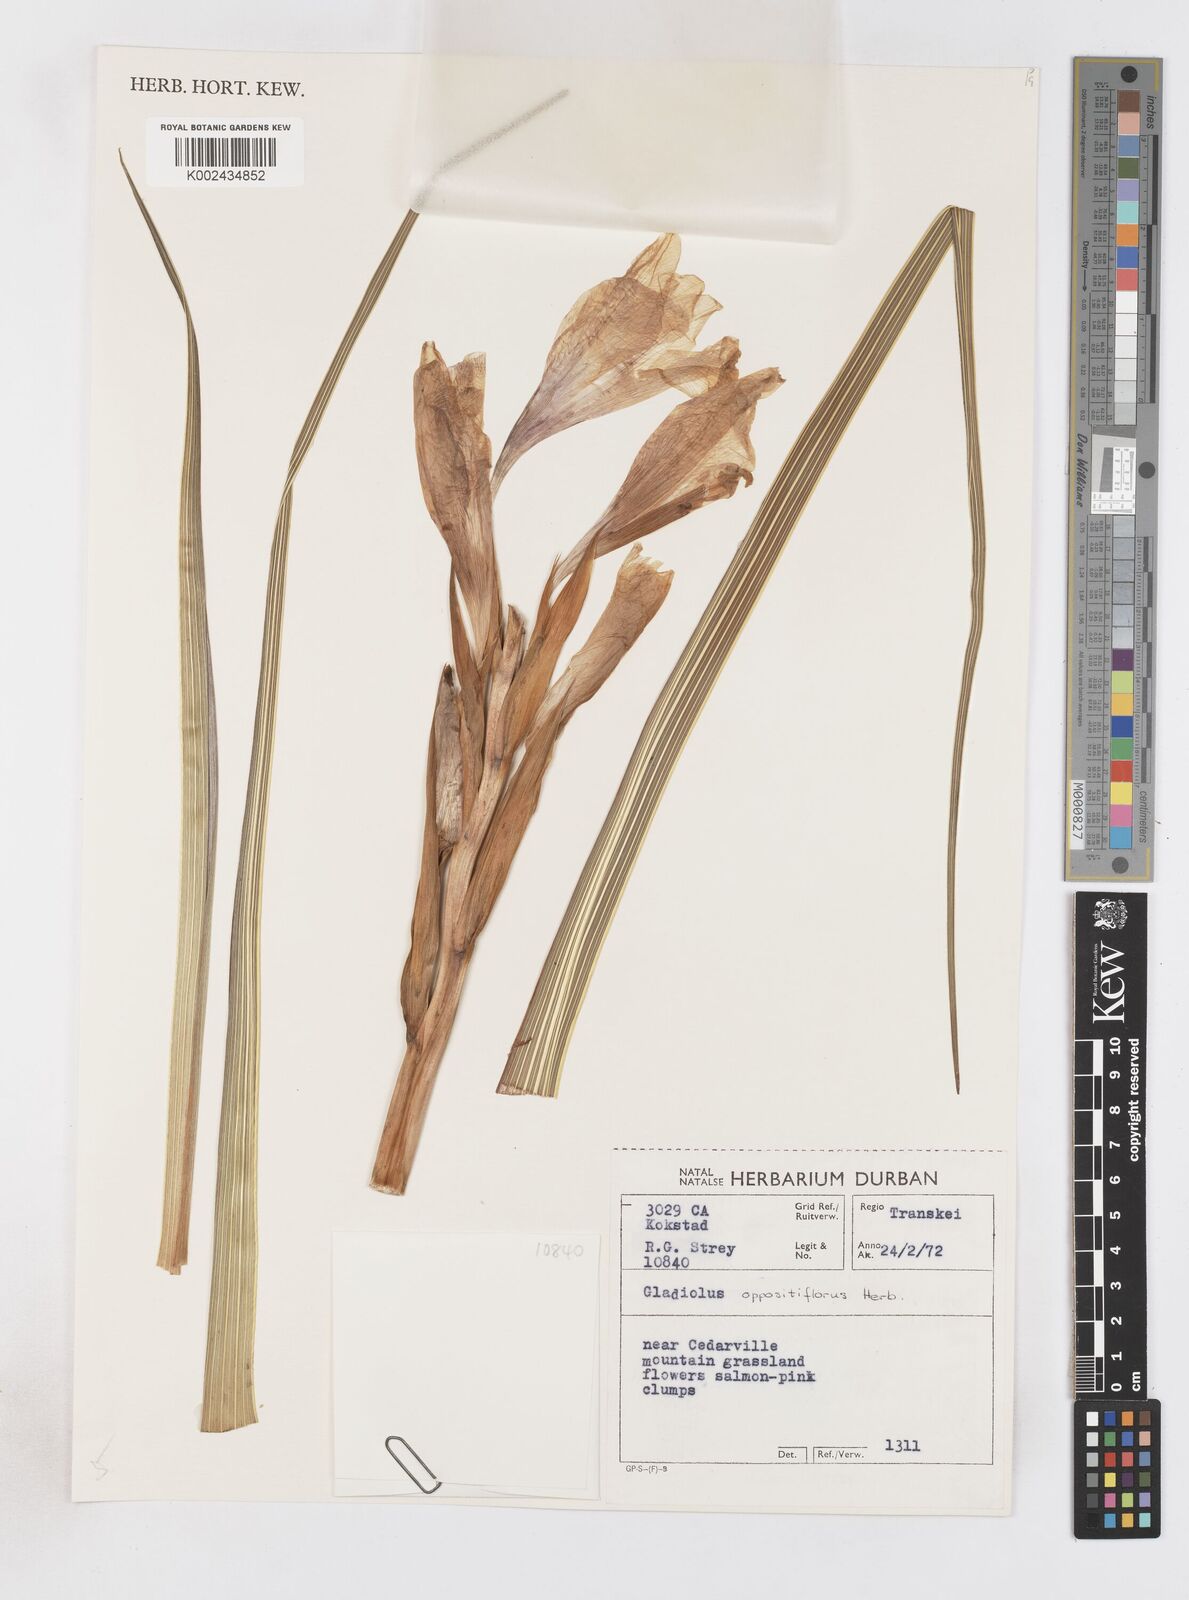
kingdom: Plantae
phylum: Tracheophyta
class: Liliopsida
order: Asparagales
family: Iridaceae
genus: Gladiolus
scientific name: Gladiolus oppositiflorus
